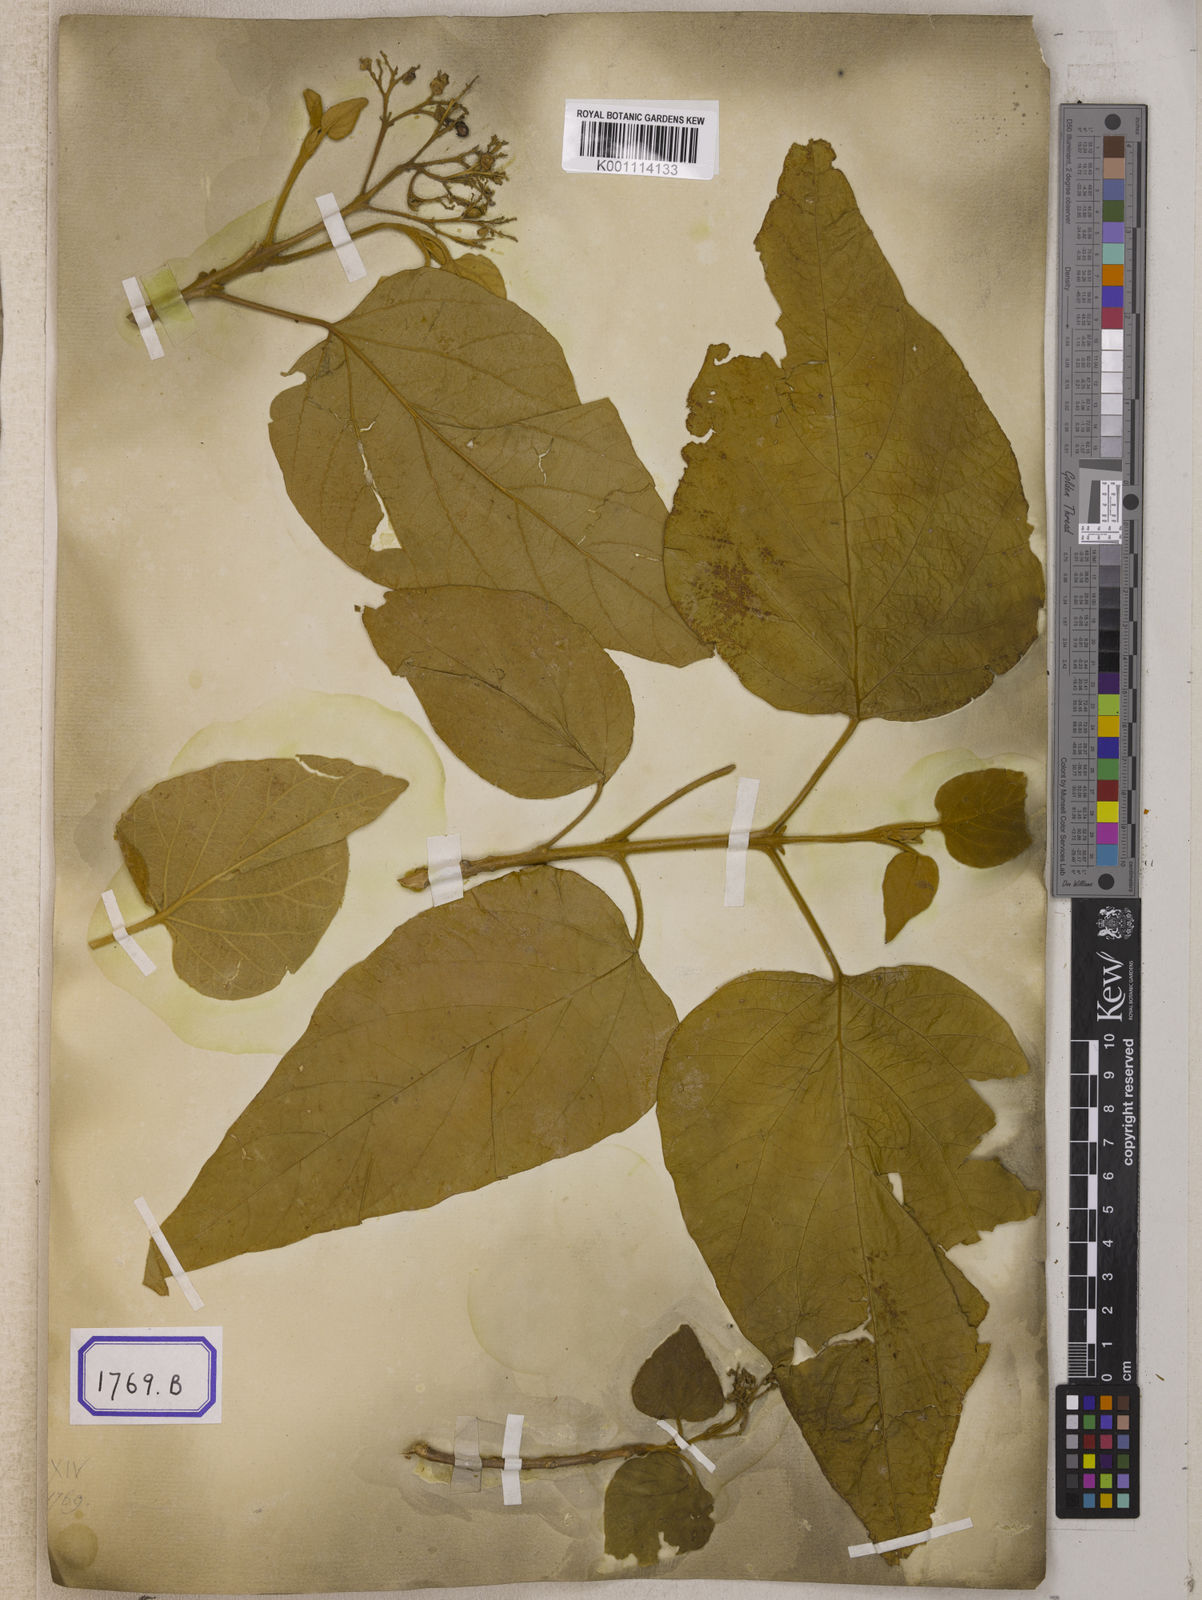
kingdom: Plantae
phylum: Tracheophyta
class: Magnoliopsida
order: Lamiales
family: Lamiaceae
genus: Premna
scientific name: Premna tomentosa
